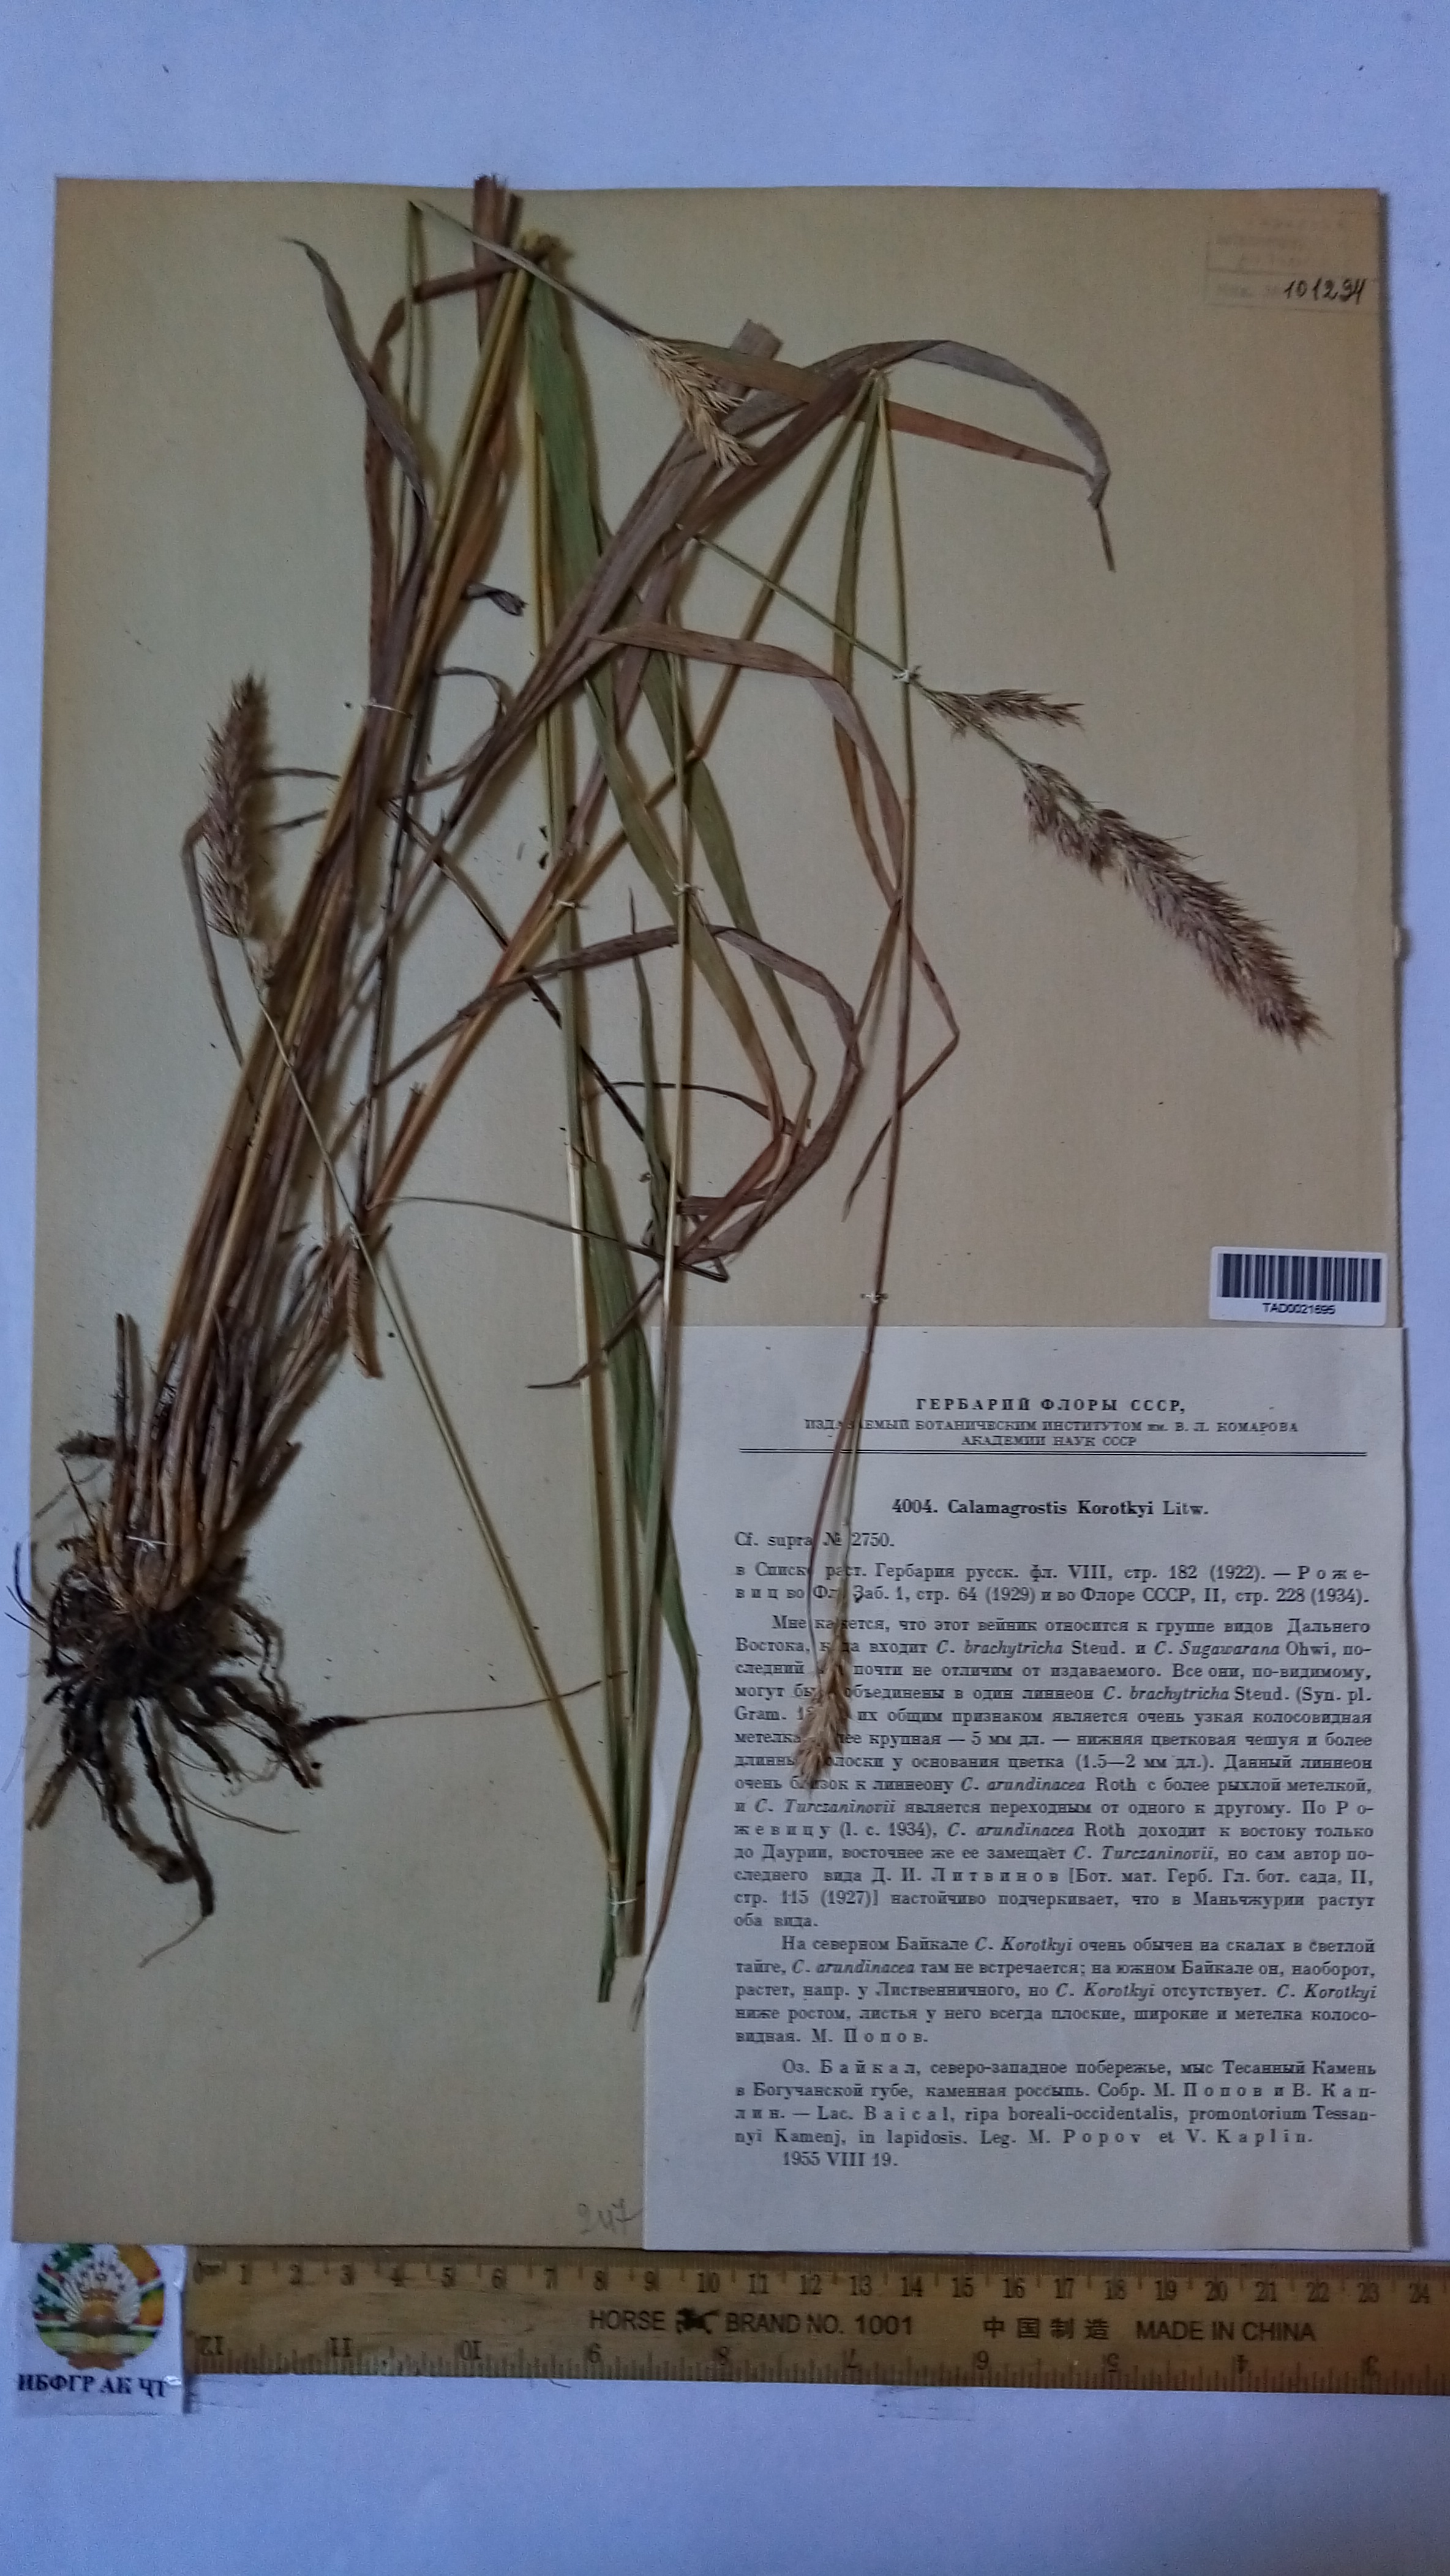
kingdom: Plantae
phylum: Tracheophyta
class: Liliopsida
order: Poales
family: Poaceae
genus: Calamagrostis
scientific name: Calamagrostis
